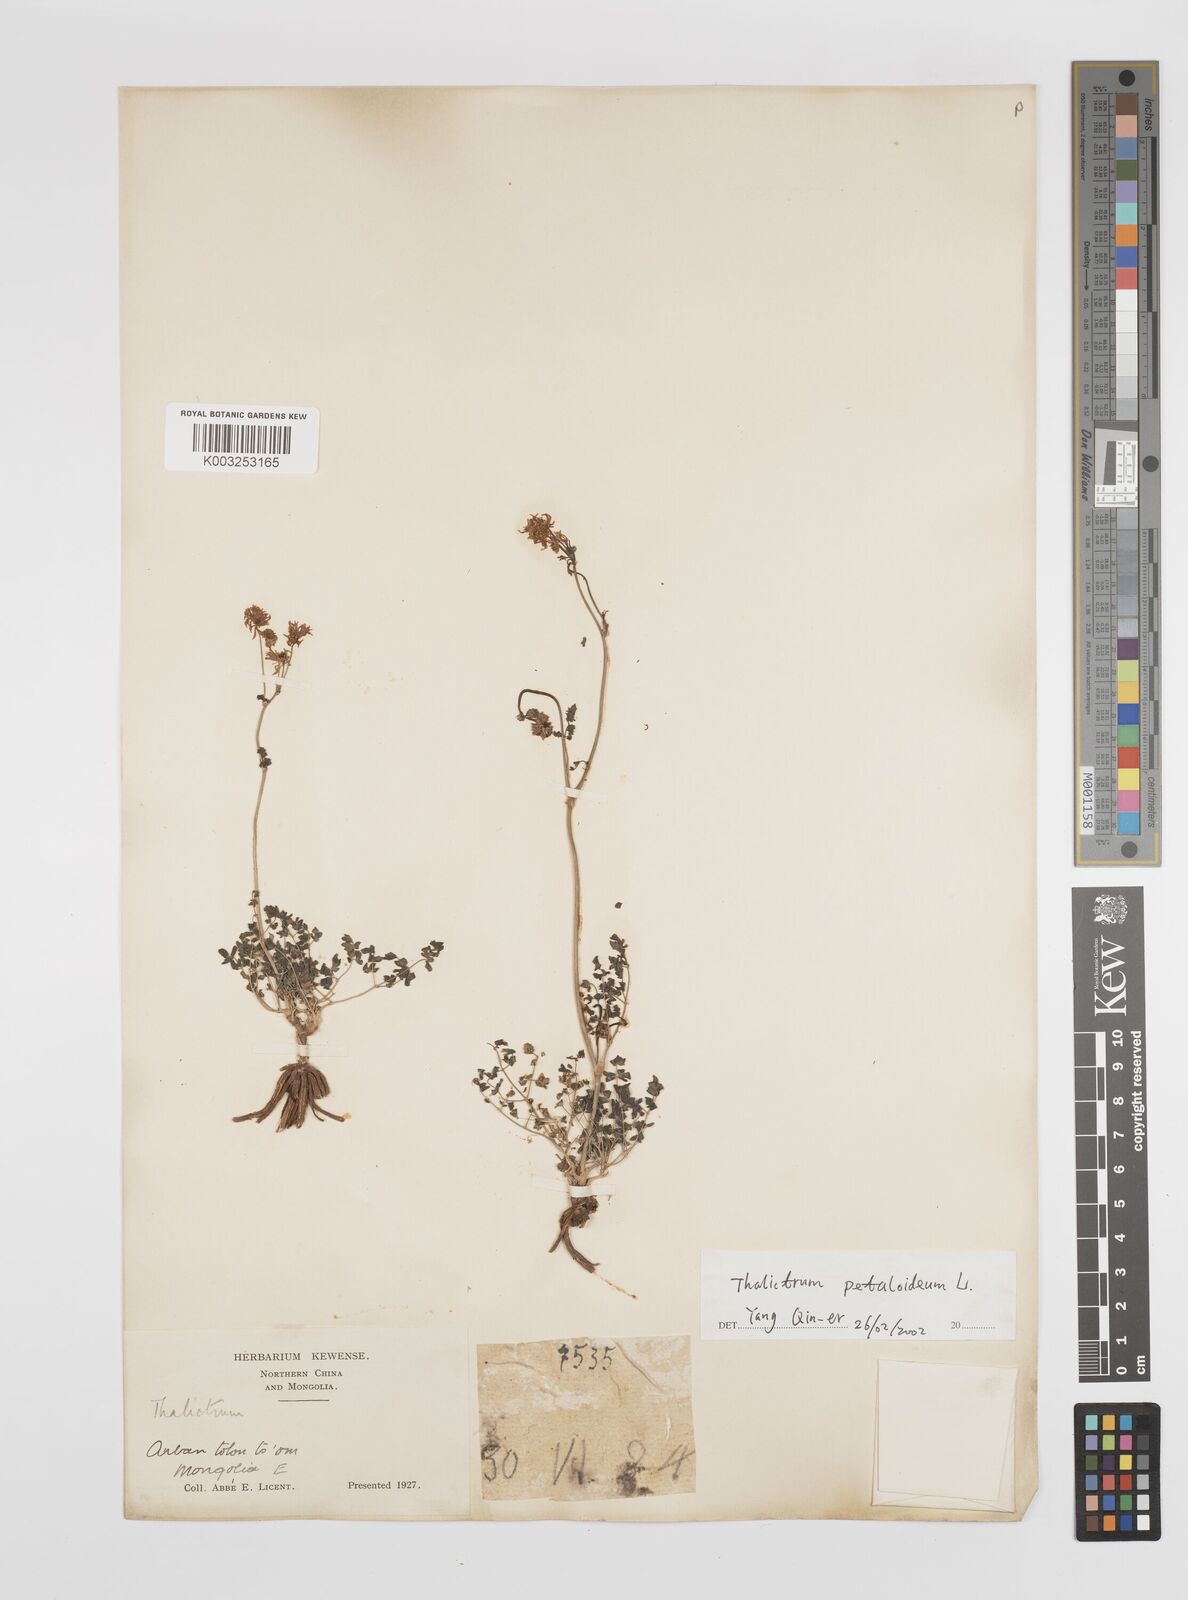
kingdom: Plantae
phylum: Tracheophyta
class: Magnoliopsida
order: Ranunculales
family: Ranunculaceae
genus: Thalictrum
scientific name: Thalictrum petaloideum
